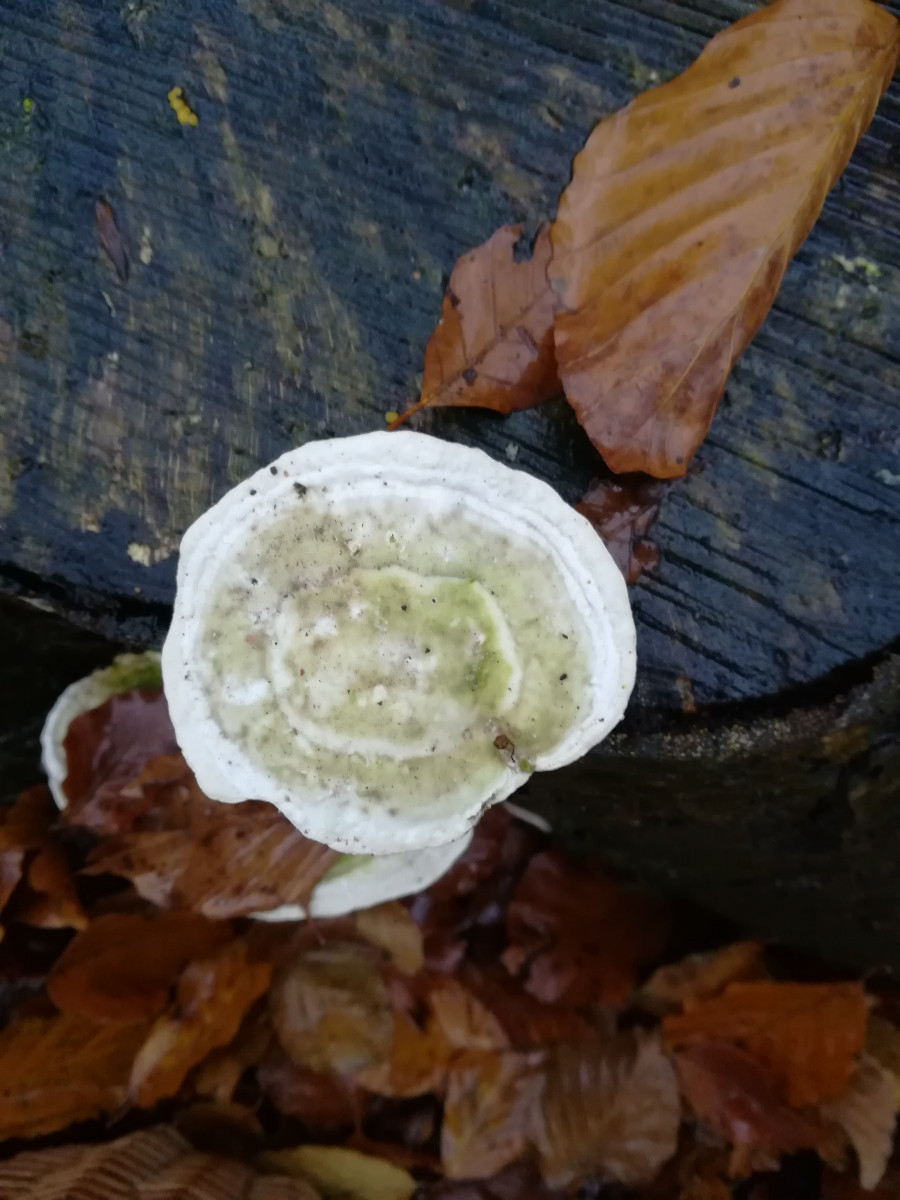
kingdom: Fungi
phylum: Basidiomycota
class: Agaricomycetes
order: Polyporales
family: Polyporaceae
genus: Trametes
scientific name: Trametes gibbosa
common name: puklet læderporesvamp
